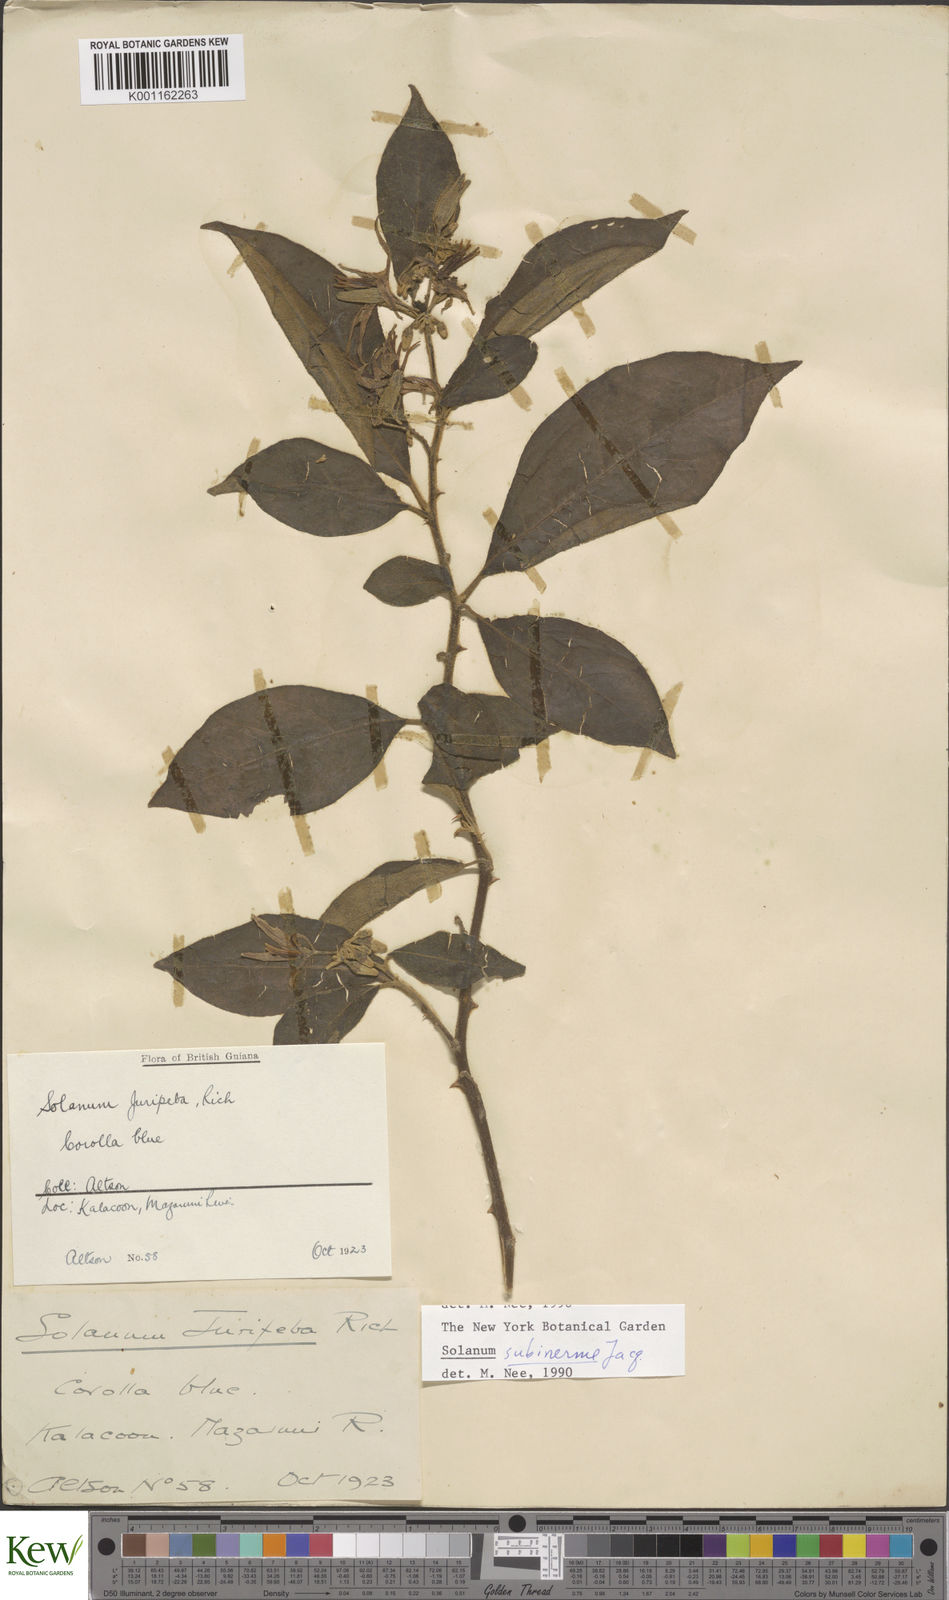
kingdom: Plantae
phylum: Tracheophyta
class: Magnoliopsida
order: Solanales
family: Solanaceae
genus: Solanum
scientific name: Solanum subinerme
